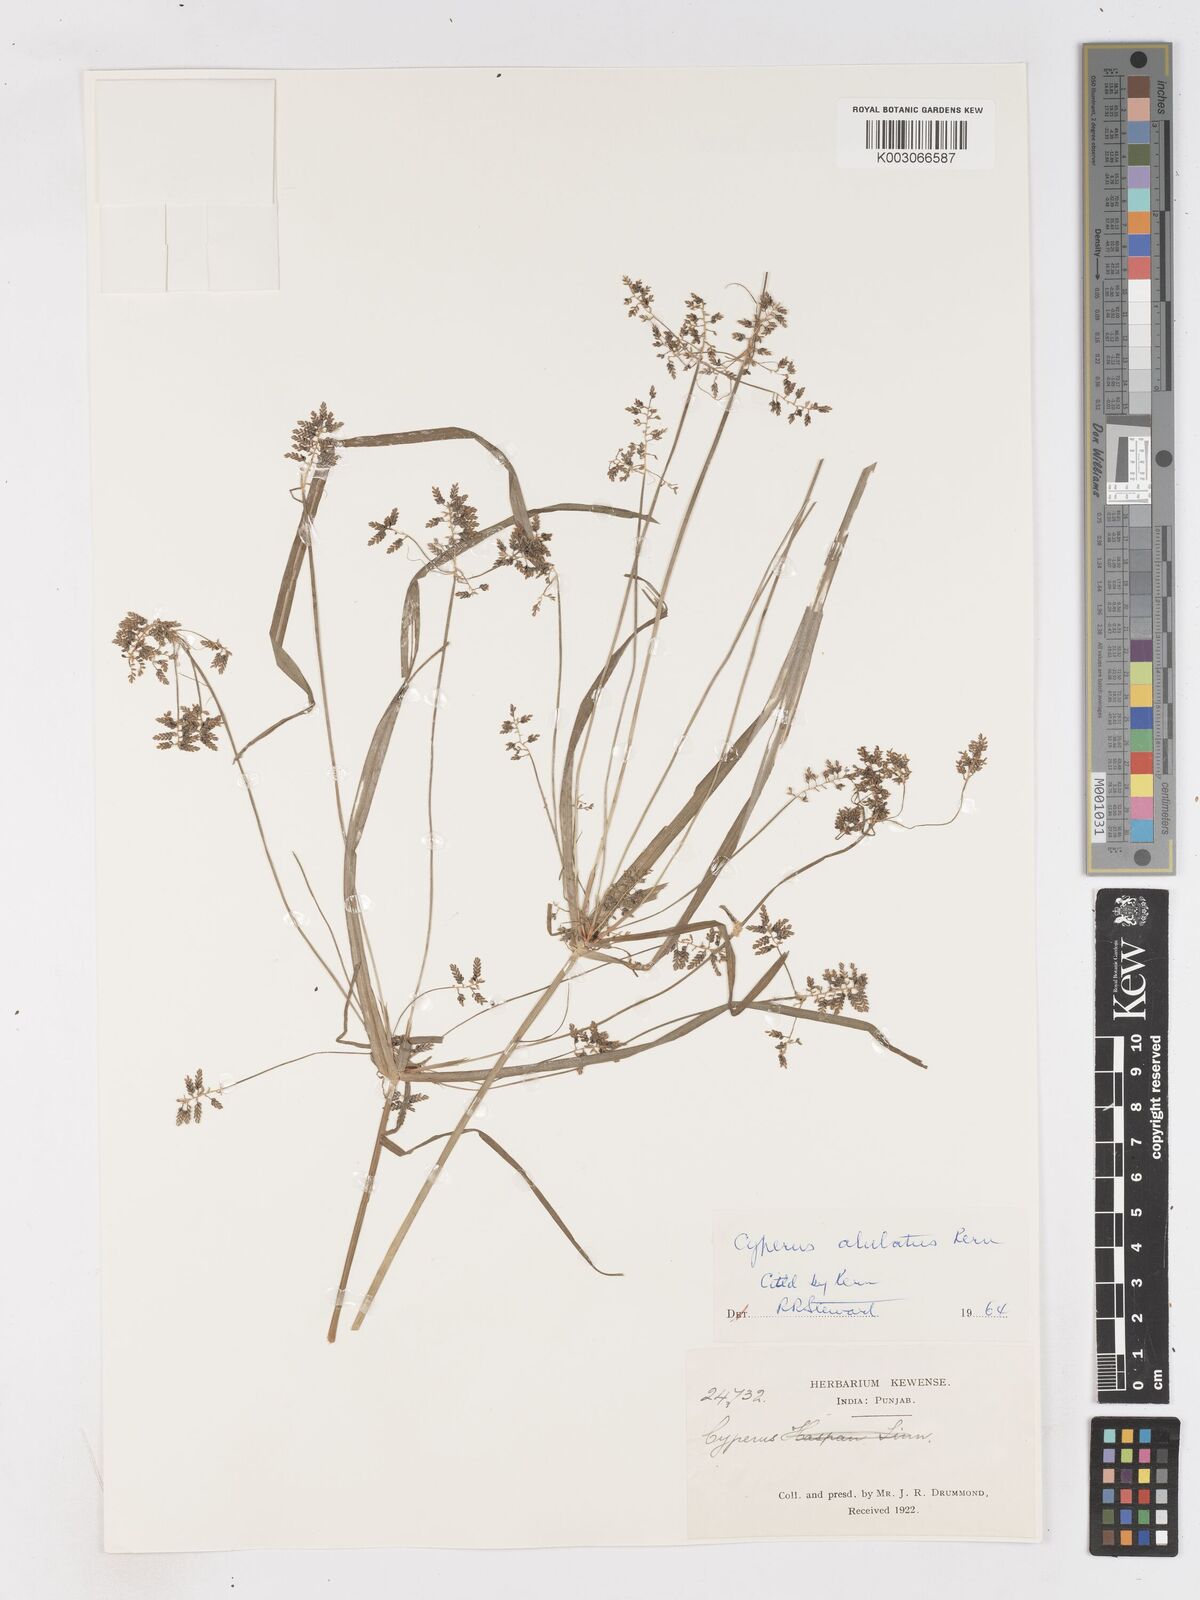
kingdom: Plantae
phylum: Tracheophyta
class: Liliopsida
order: Poales
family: Cyperaceae
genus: Cyperus
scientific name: Cyperus alulatus
